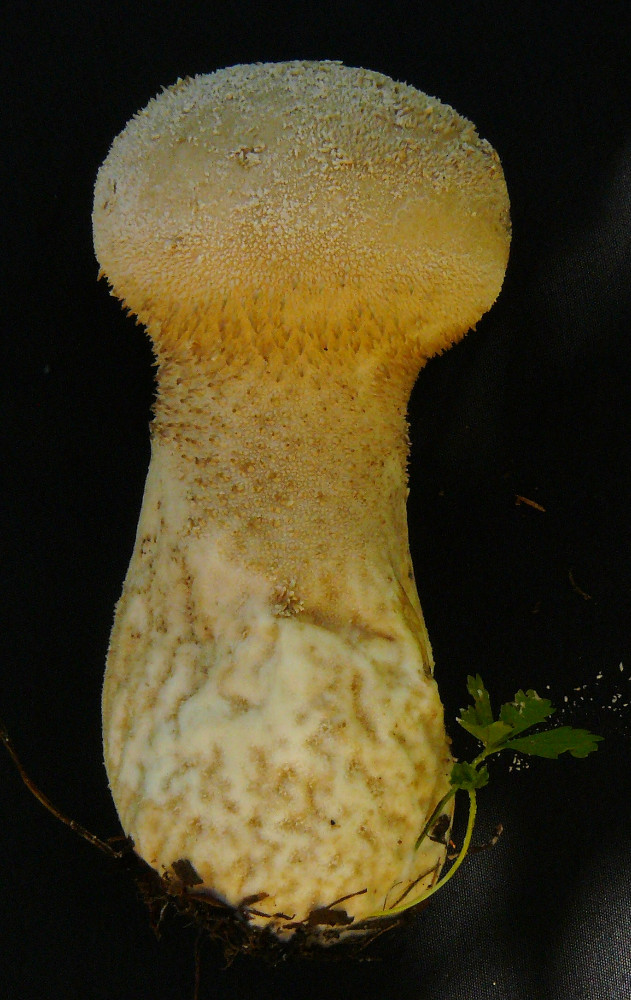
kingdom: Fungi
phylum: Basidiomycota
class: Agaricomycetes
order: Agaricales
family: Lycoperdaceae
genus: Lycoperdon
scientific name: Lycoperdon excipuliforme
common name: højstokket støvbold
